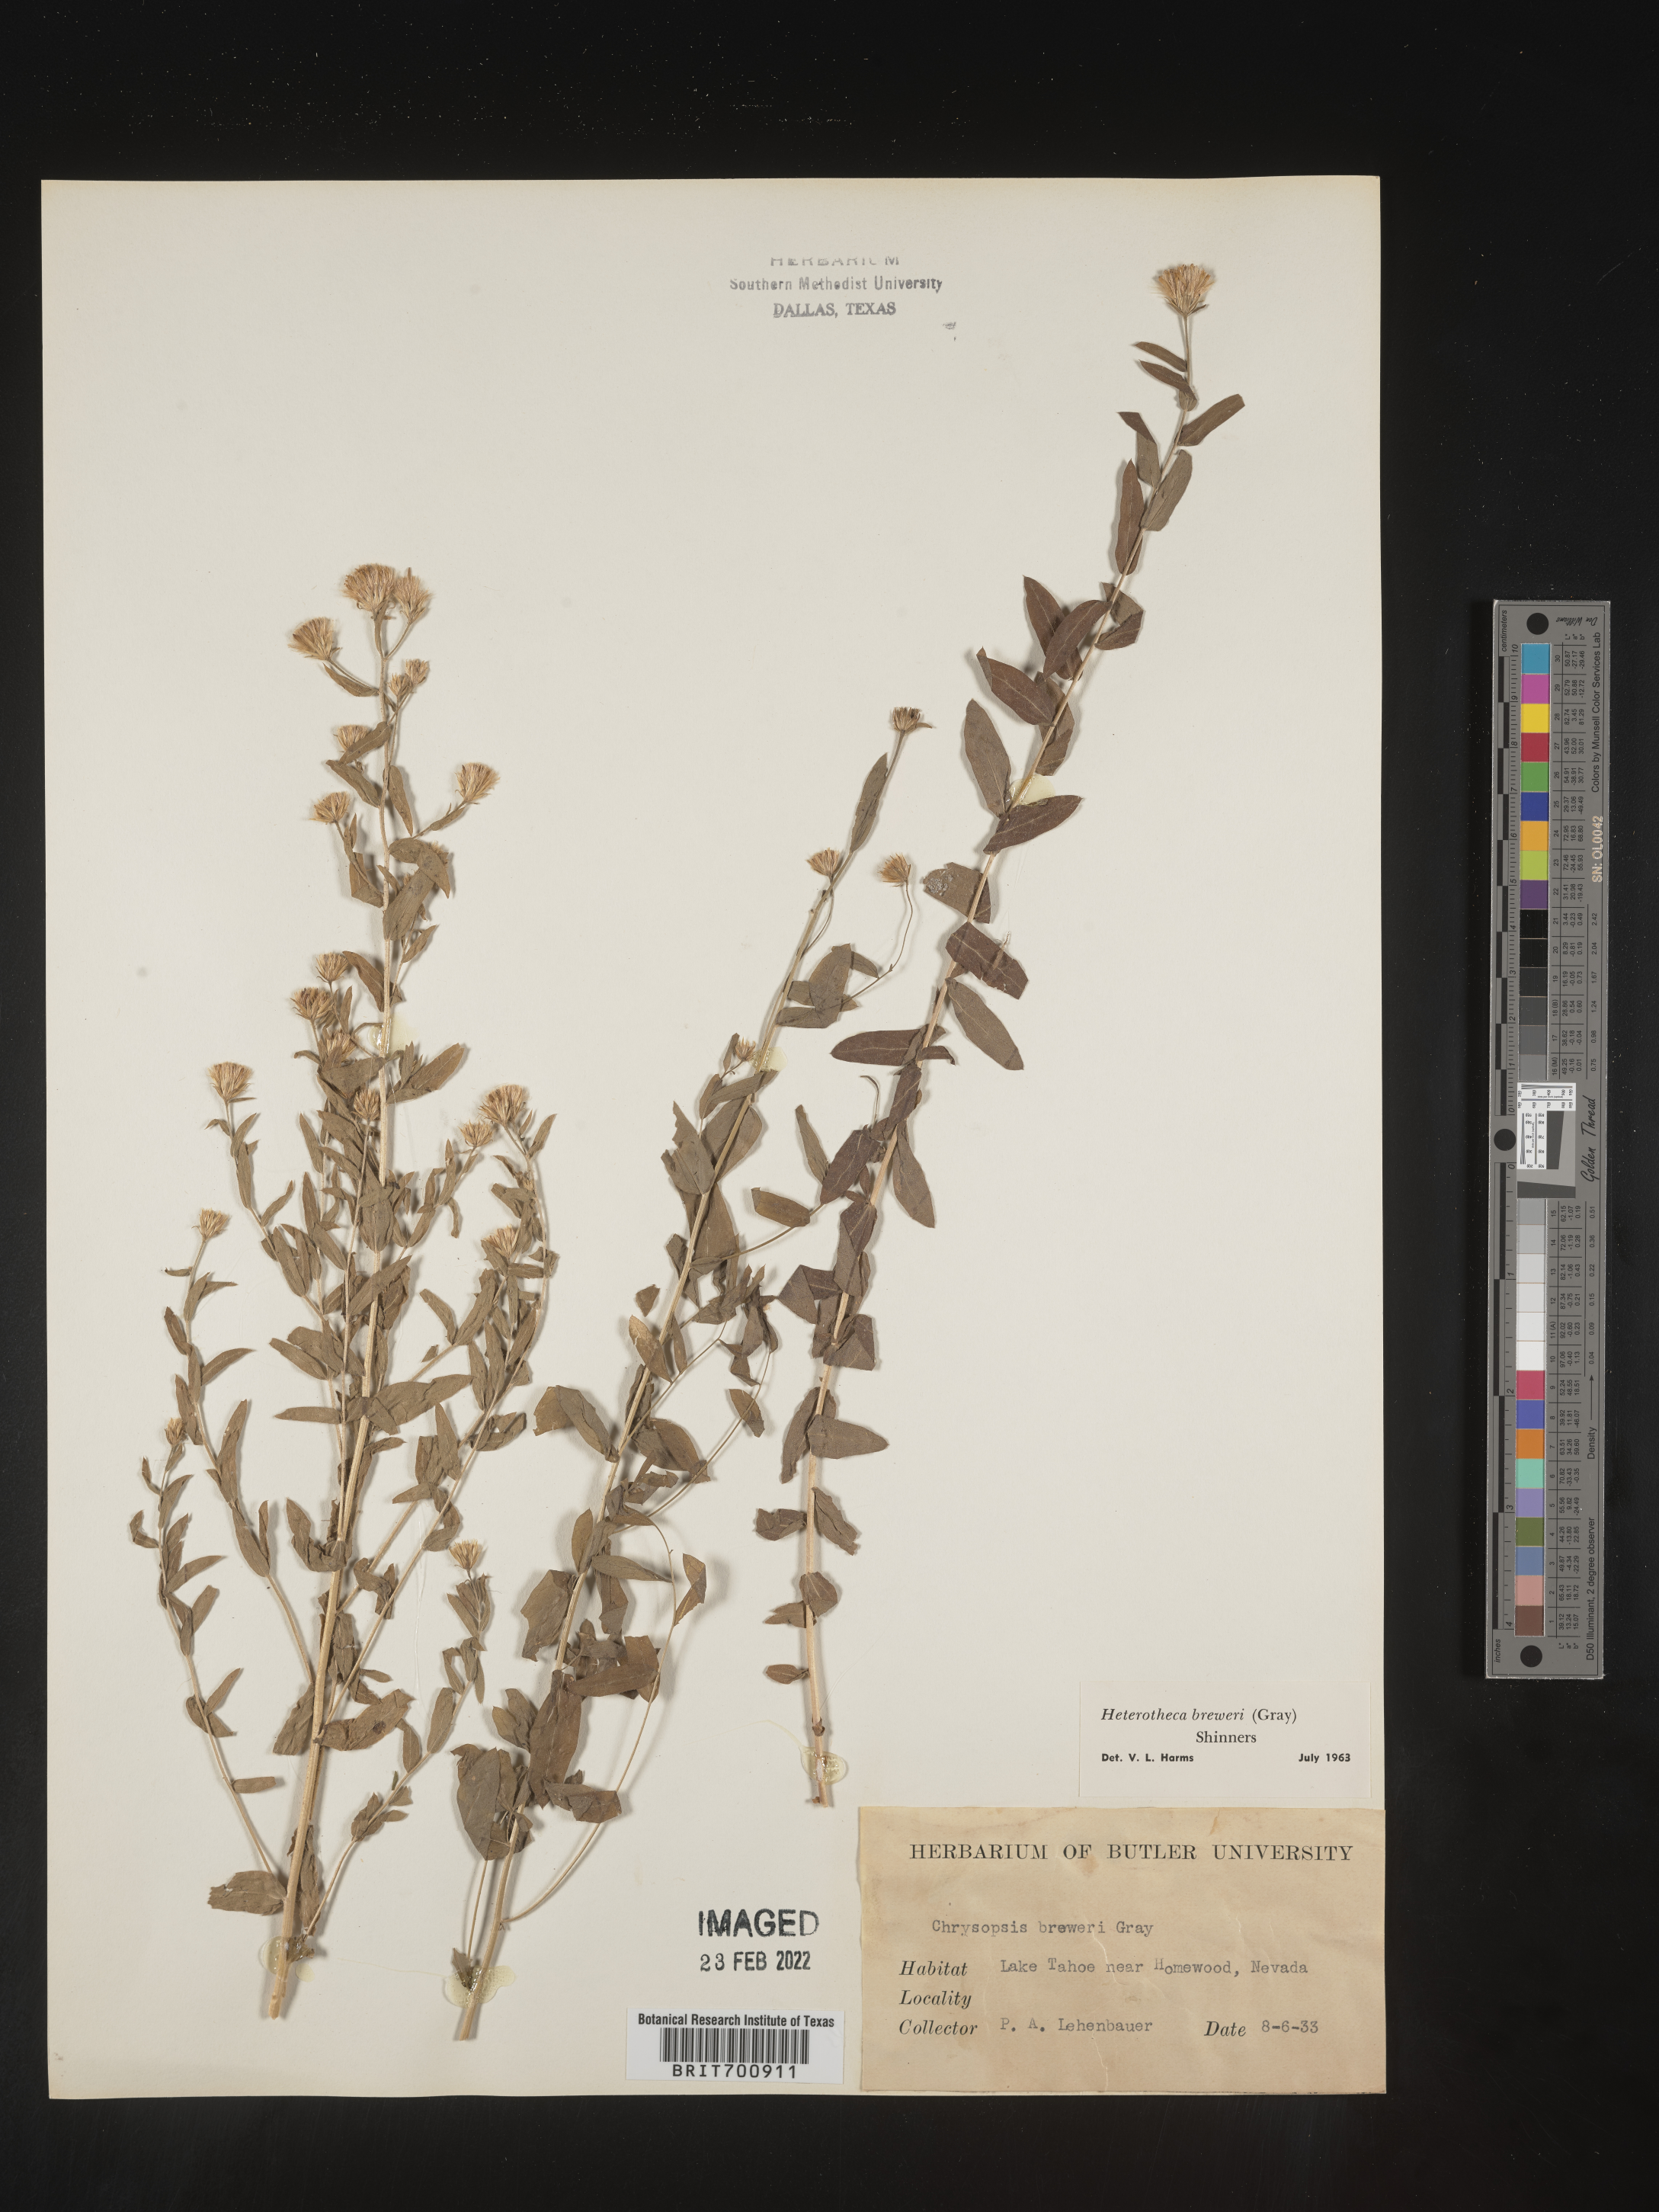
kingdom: Plantae
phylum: Tracheophyta
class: Magnoliopsida
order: Asterales
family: Asteraceae
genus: Eucephalus
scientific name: Eucephalus breweri
